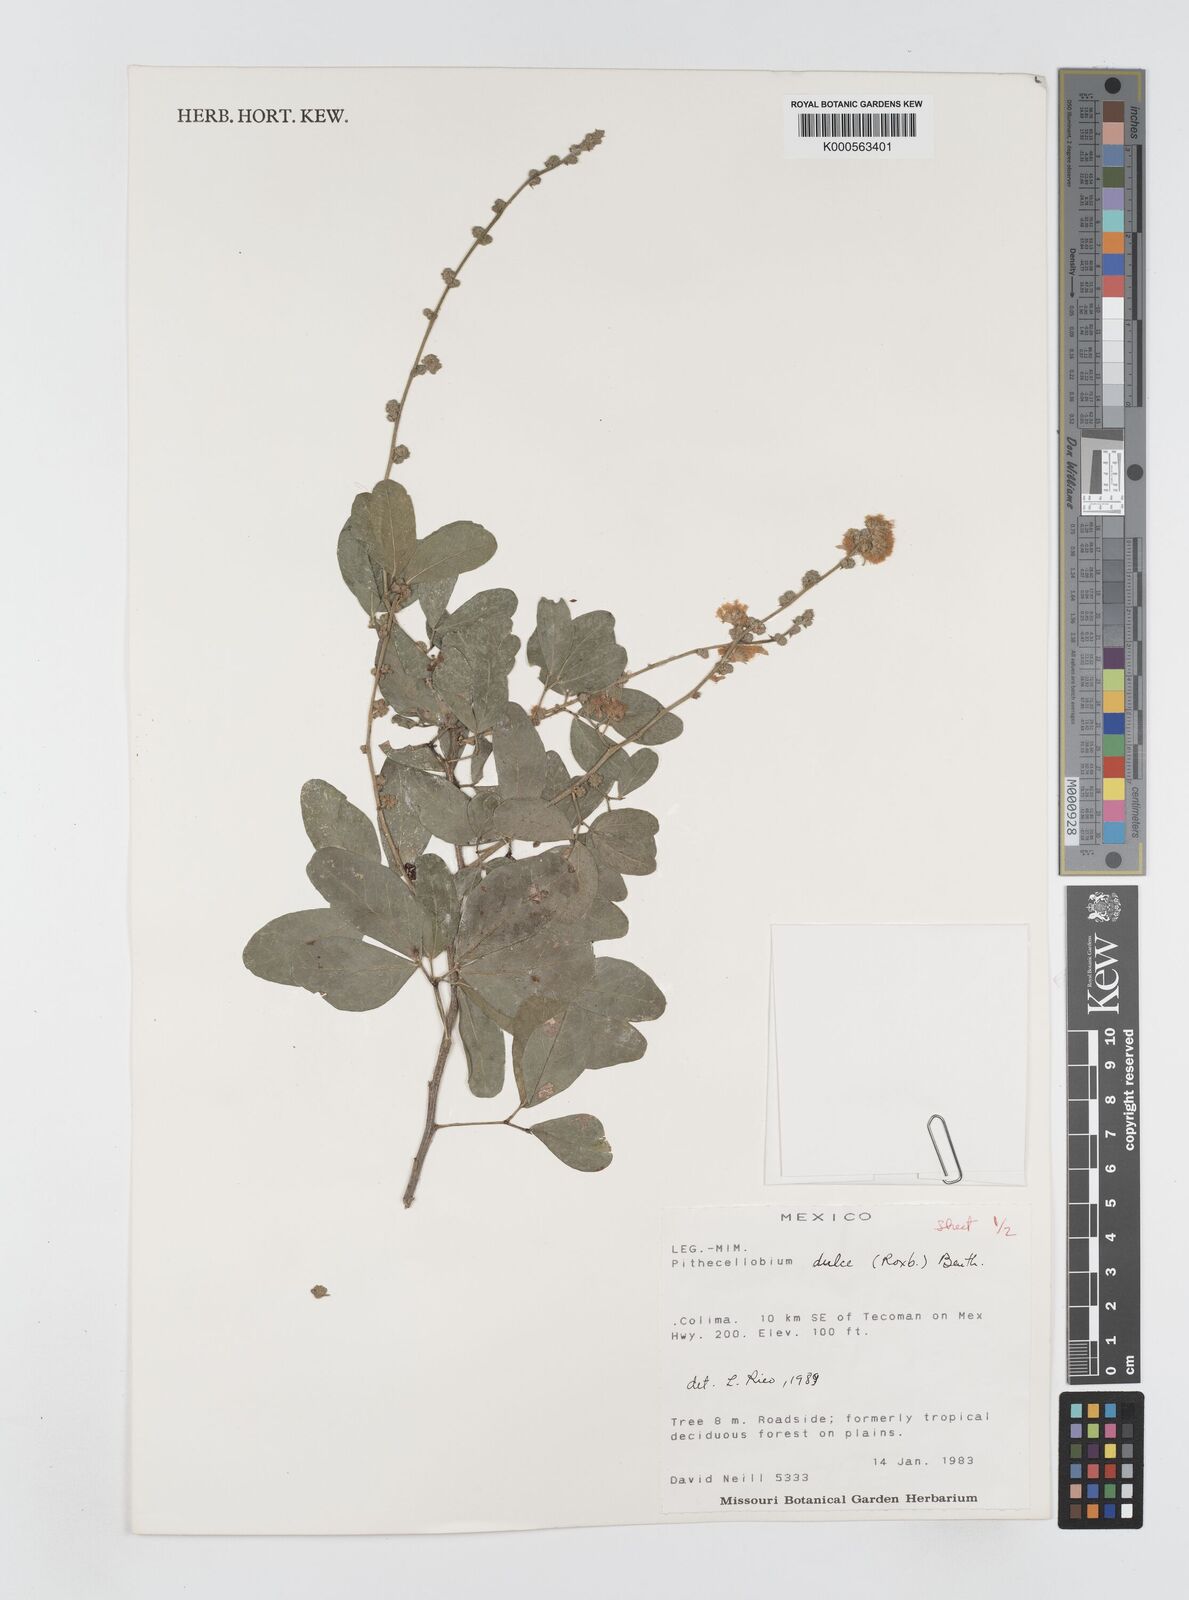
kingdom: Plantae
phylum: Tracheophyta
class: Magnoliopsida
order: Fabales
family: Fabaceae
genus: Pithecellobium
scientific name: Pithecellobium dulce
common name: Monkeypod
